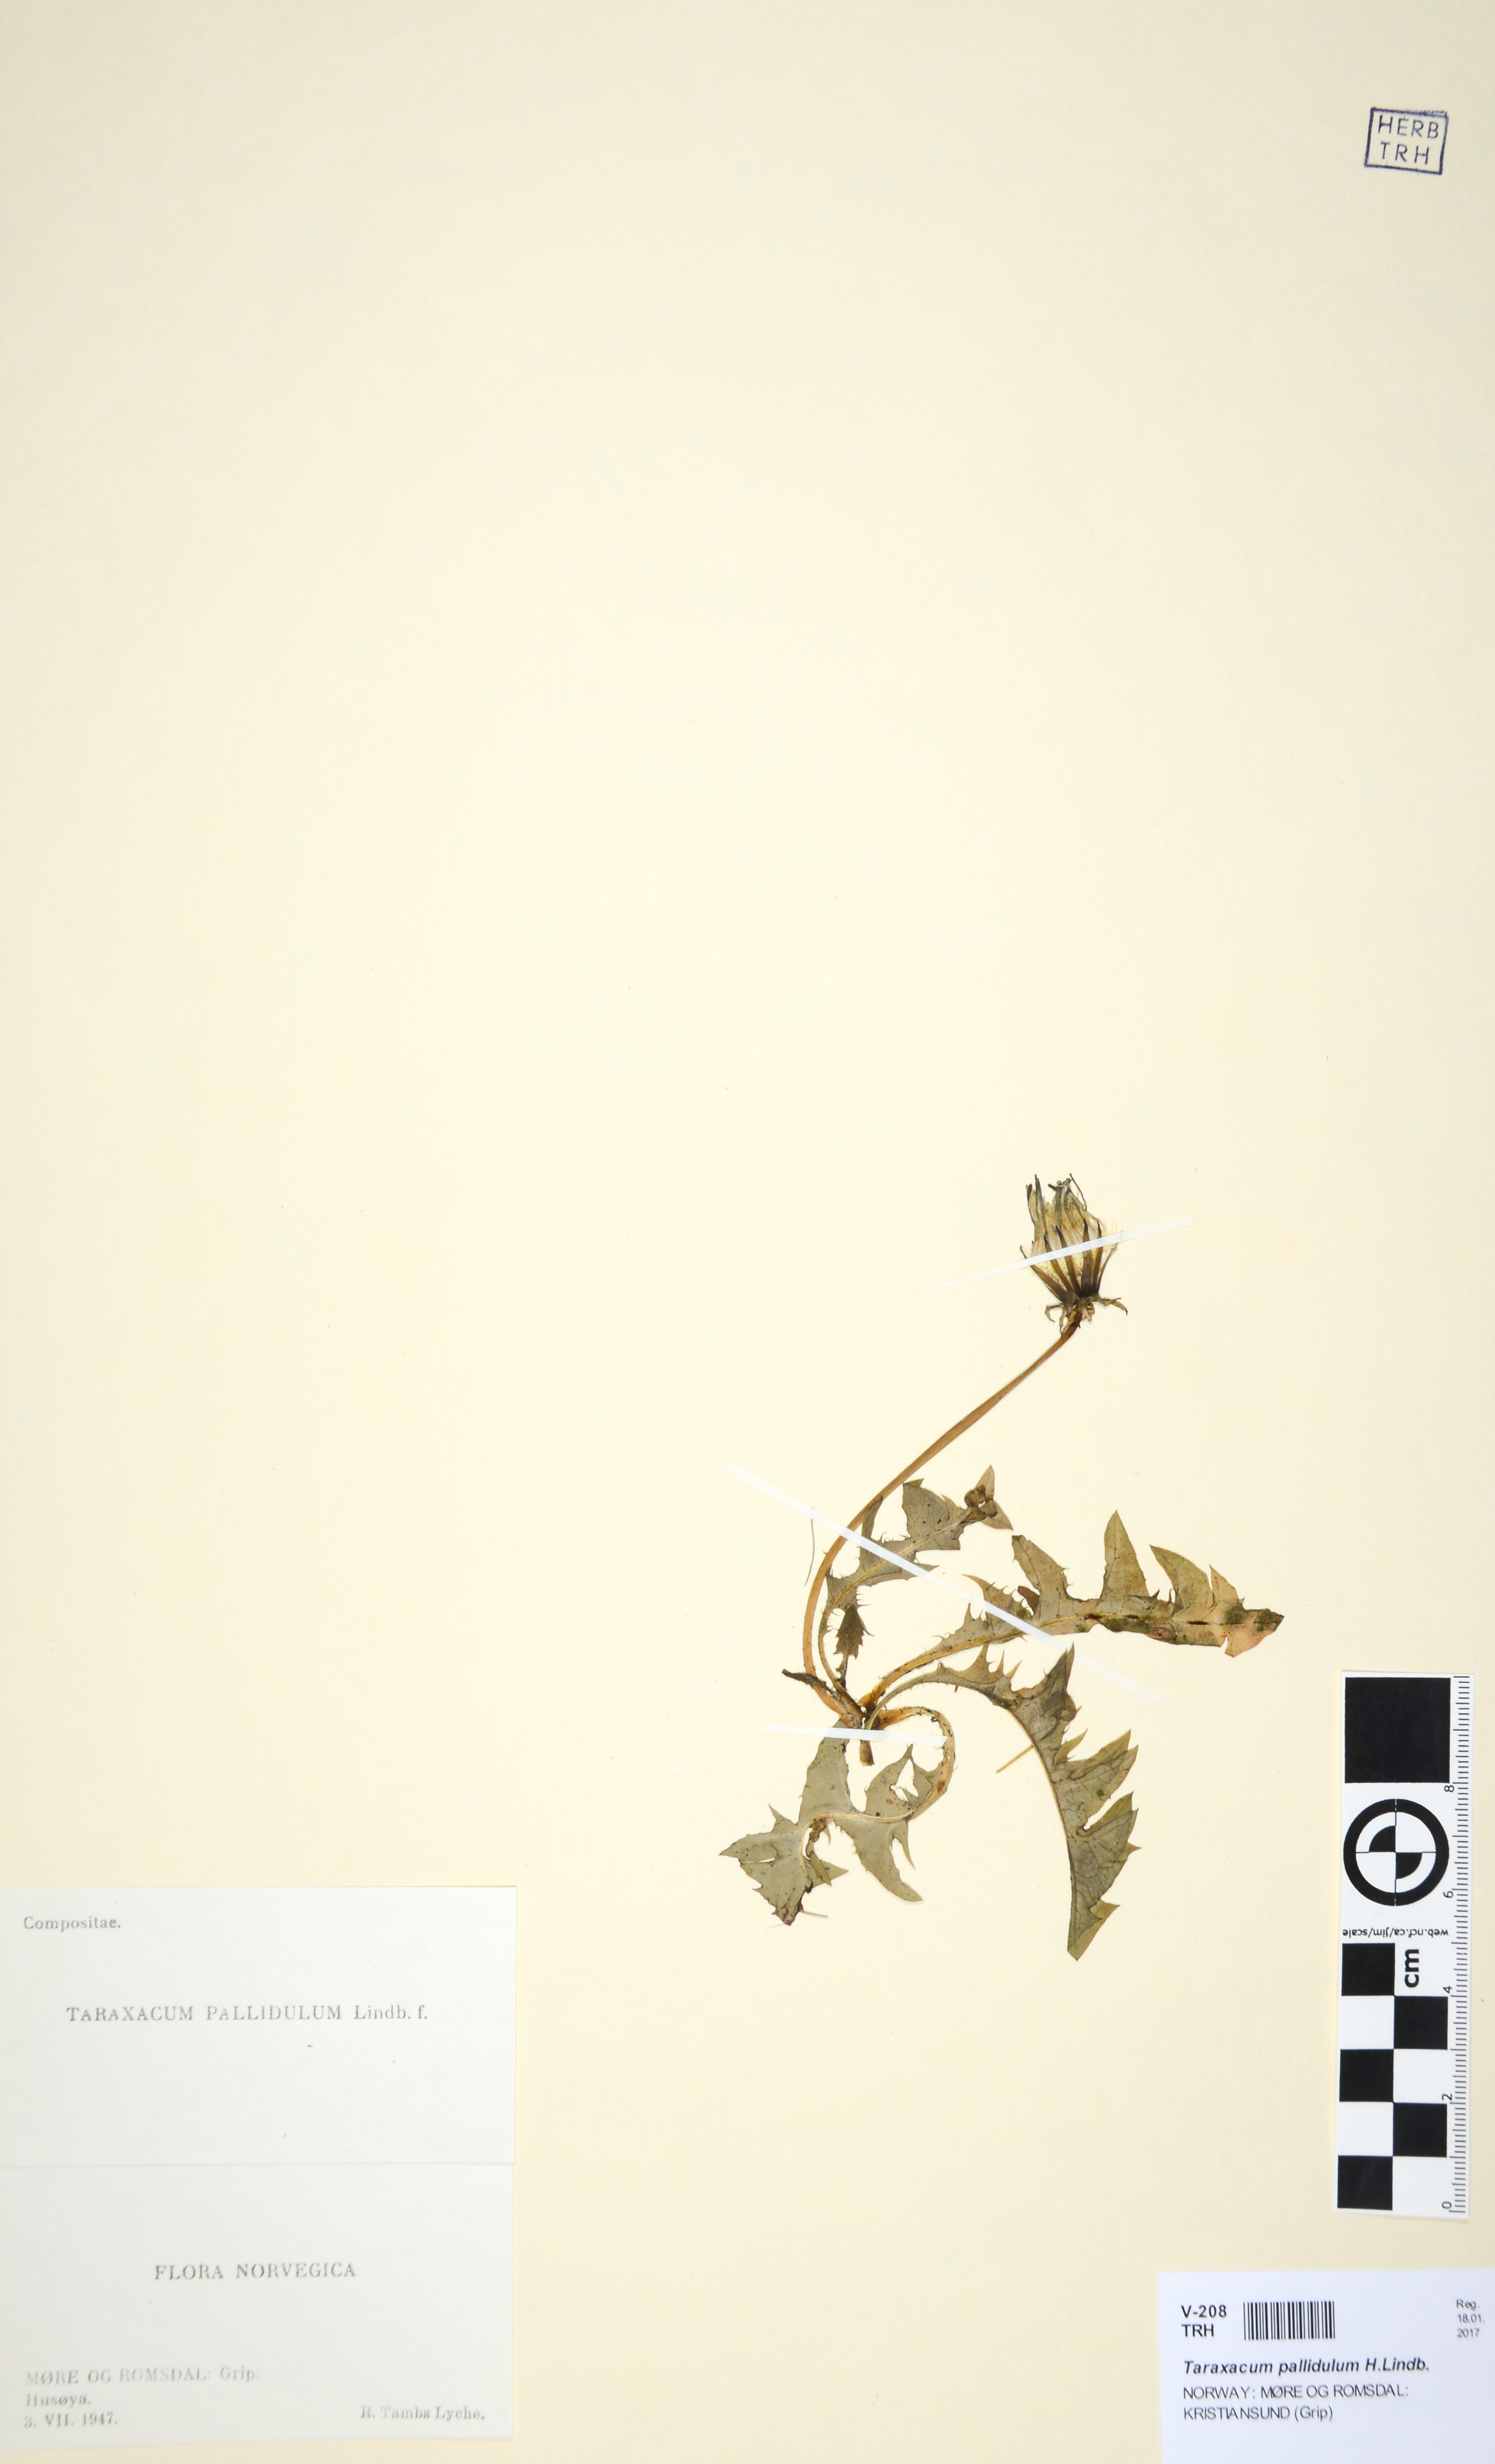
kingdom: Plantae
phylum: Tracheophyta
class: Magnoliopsida
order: Asterales
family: Asteraceae
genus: Taraxacum
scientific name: Taraxacum pallidulum
